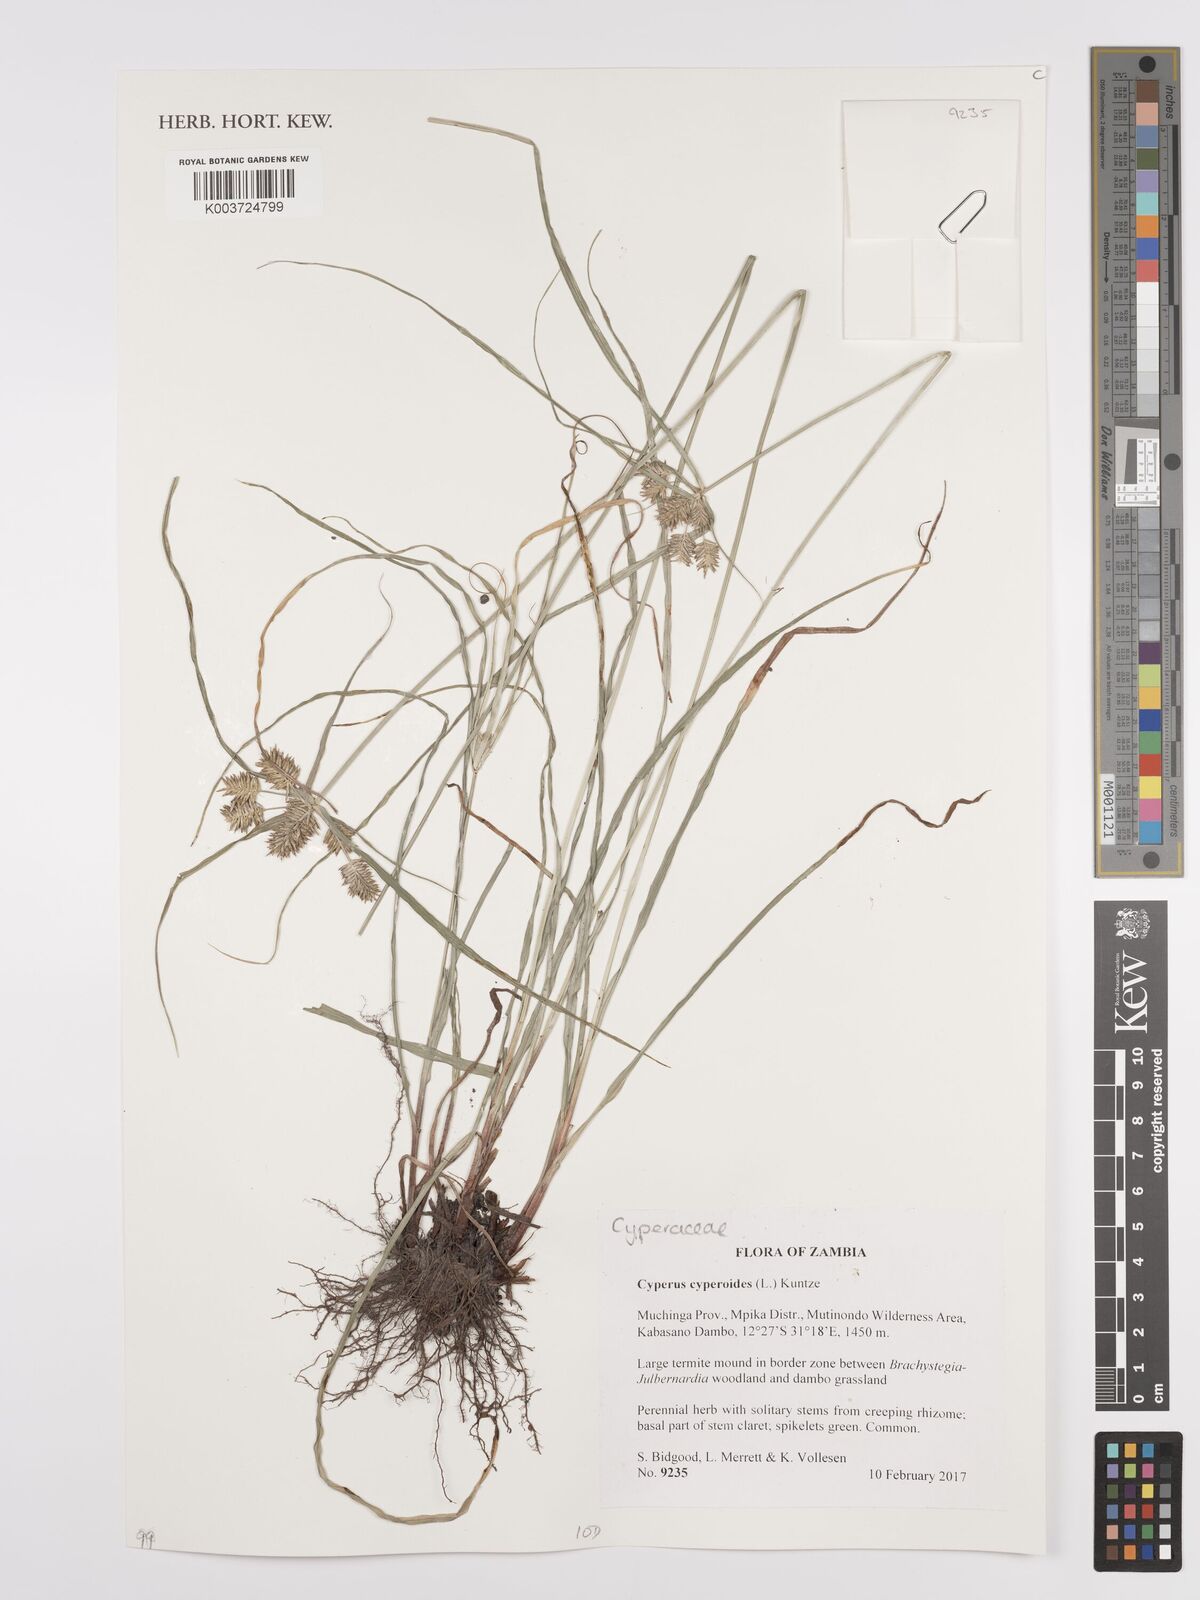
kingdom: Plantae
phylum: Tracheophyta
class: Liliopsida
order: Poales
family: Cyperaceae
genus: Cyperus
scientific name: Cyperus cyperoides
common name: Pacific island flat sedge
